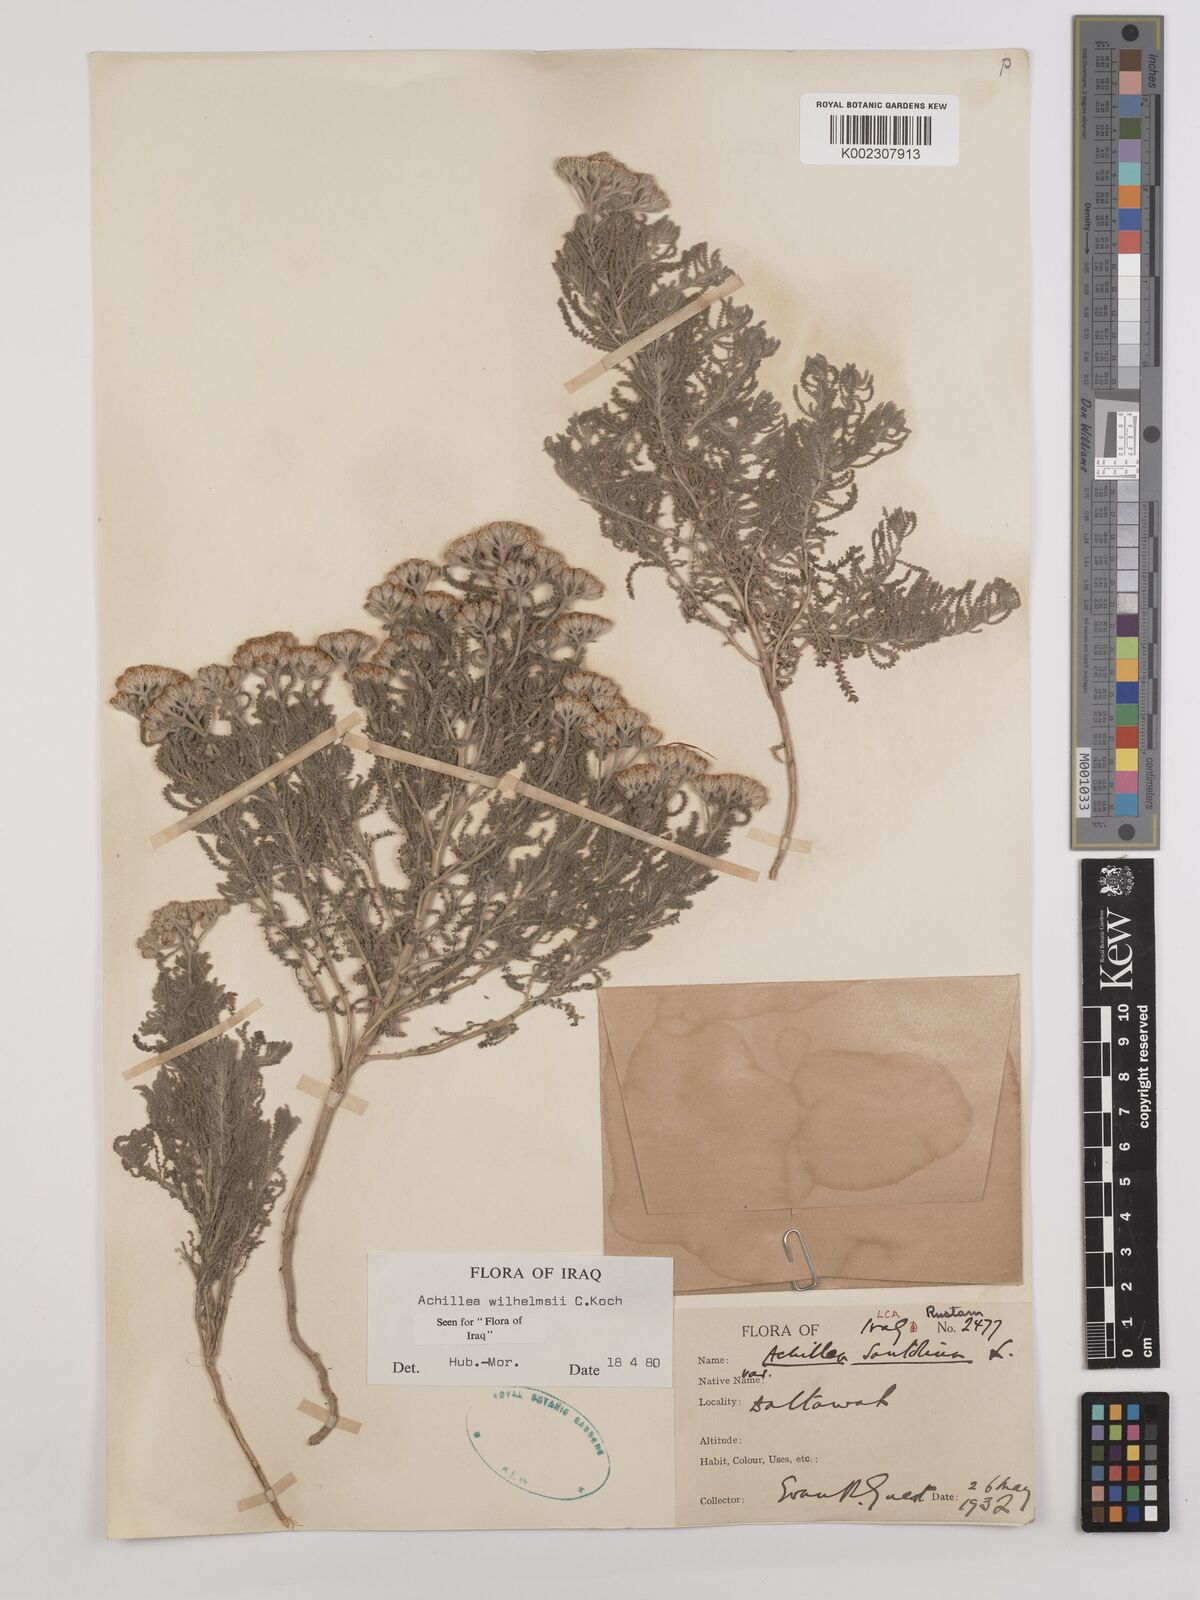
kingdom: Plantae
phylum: Tracheophyta
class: Magnoliopsida
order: Asterales
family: Asteraceae
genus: Achillea
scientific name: Achillea wilhelmsii
